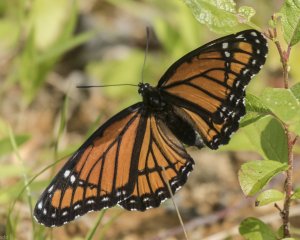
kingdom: Animalia
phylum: Arthropoda
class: Insecta
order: Lepidoptera
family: Nymphalidae
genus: Limenitis
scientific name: Limenitis archippus
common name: Viceroy
